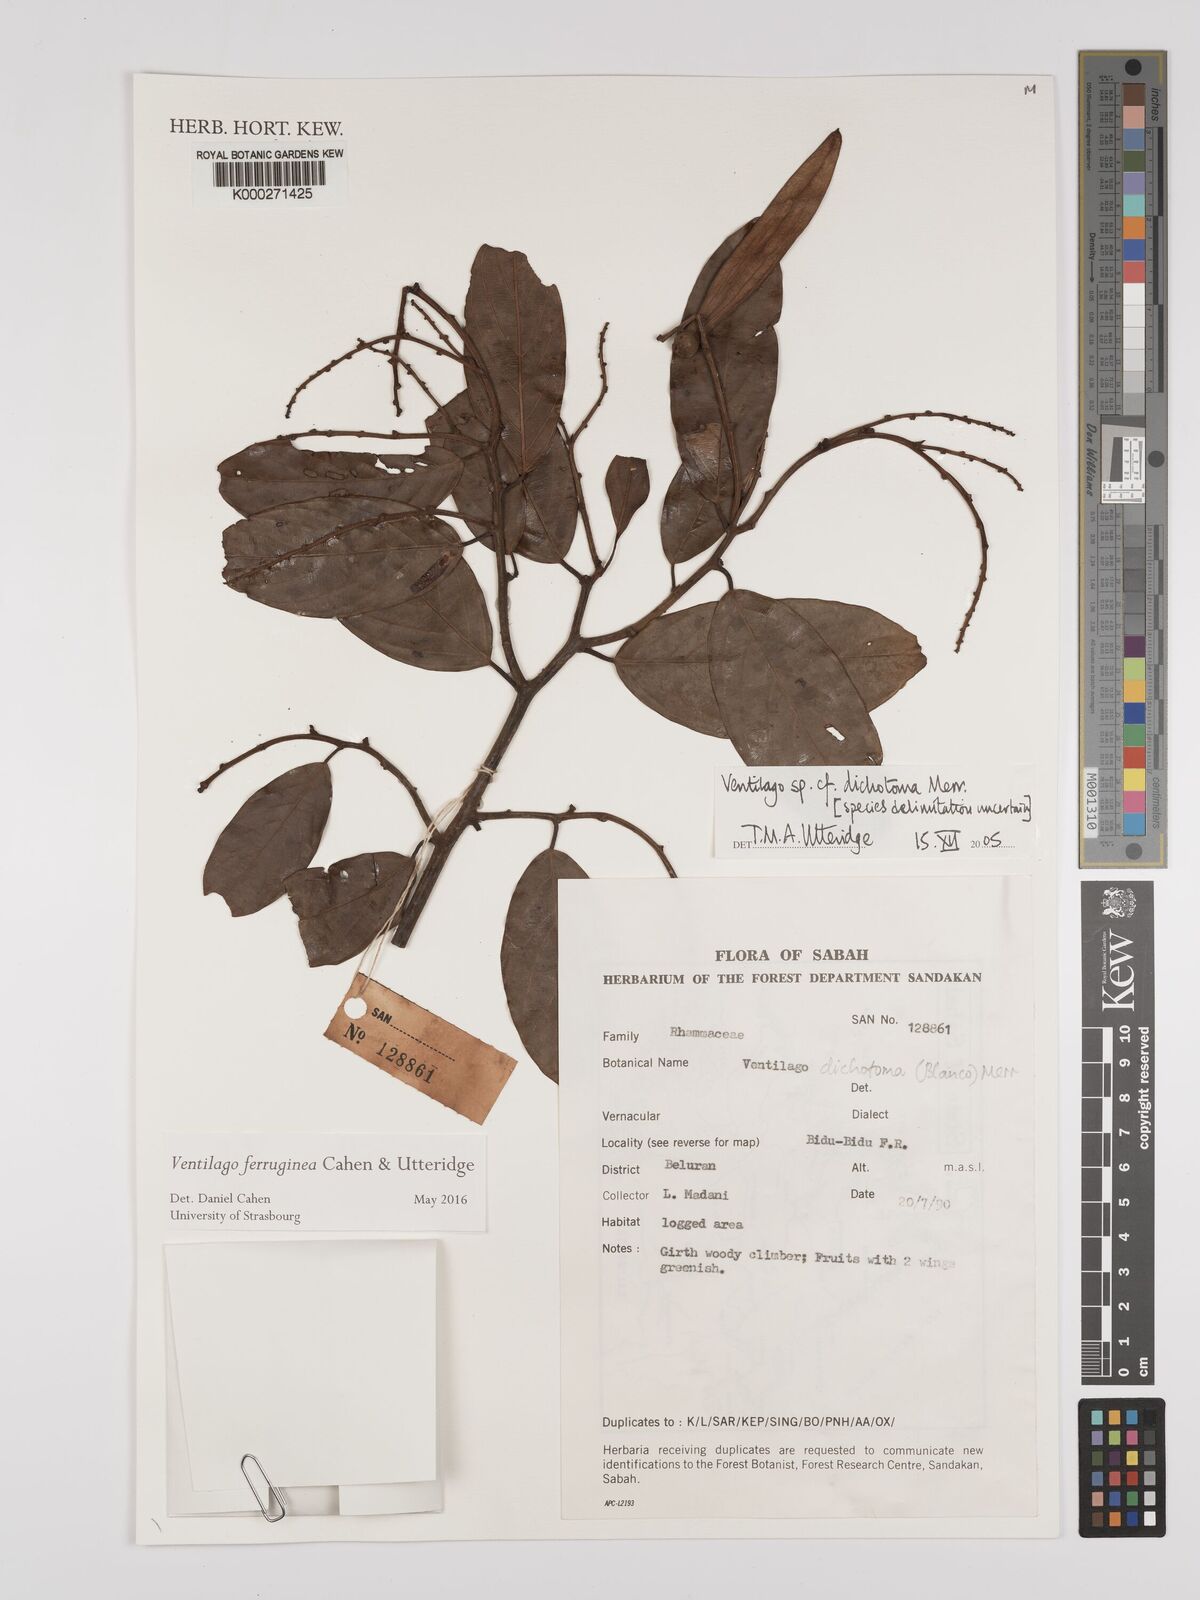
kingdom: Plantae
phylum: Tracheophyta
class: Magnoliopsida
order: Rosales
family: Rhamnaceae
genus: Ventilago
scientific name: Ventilago
